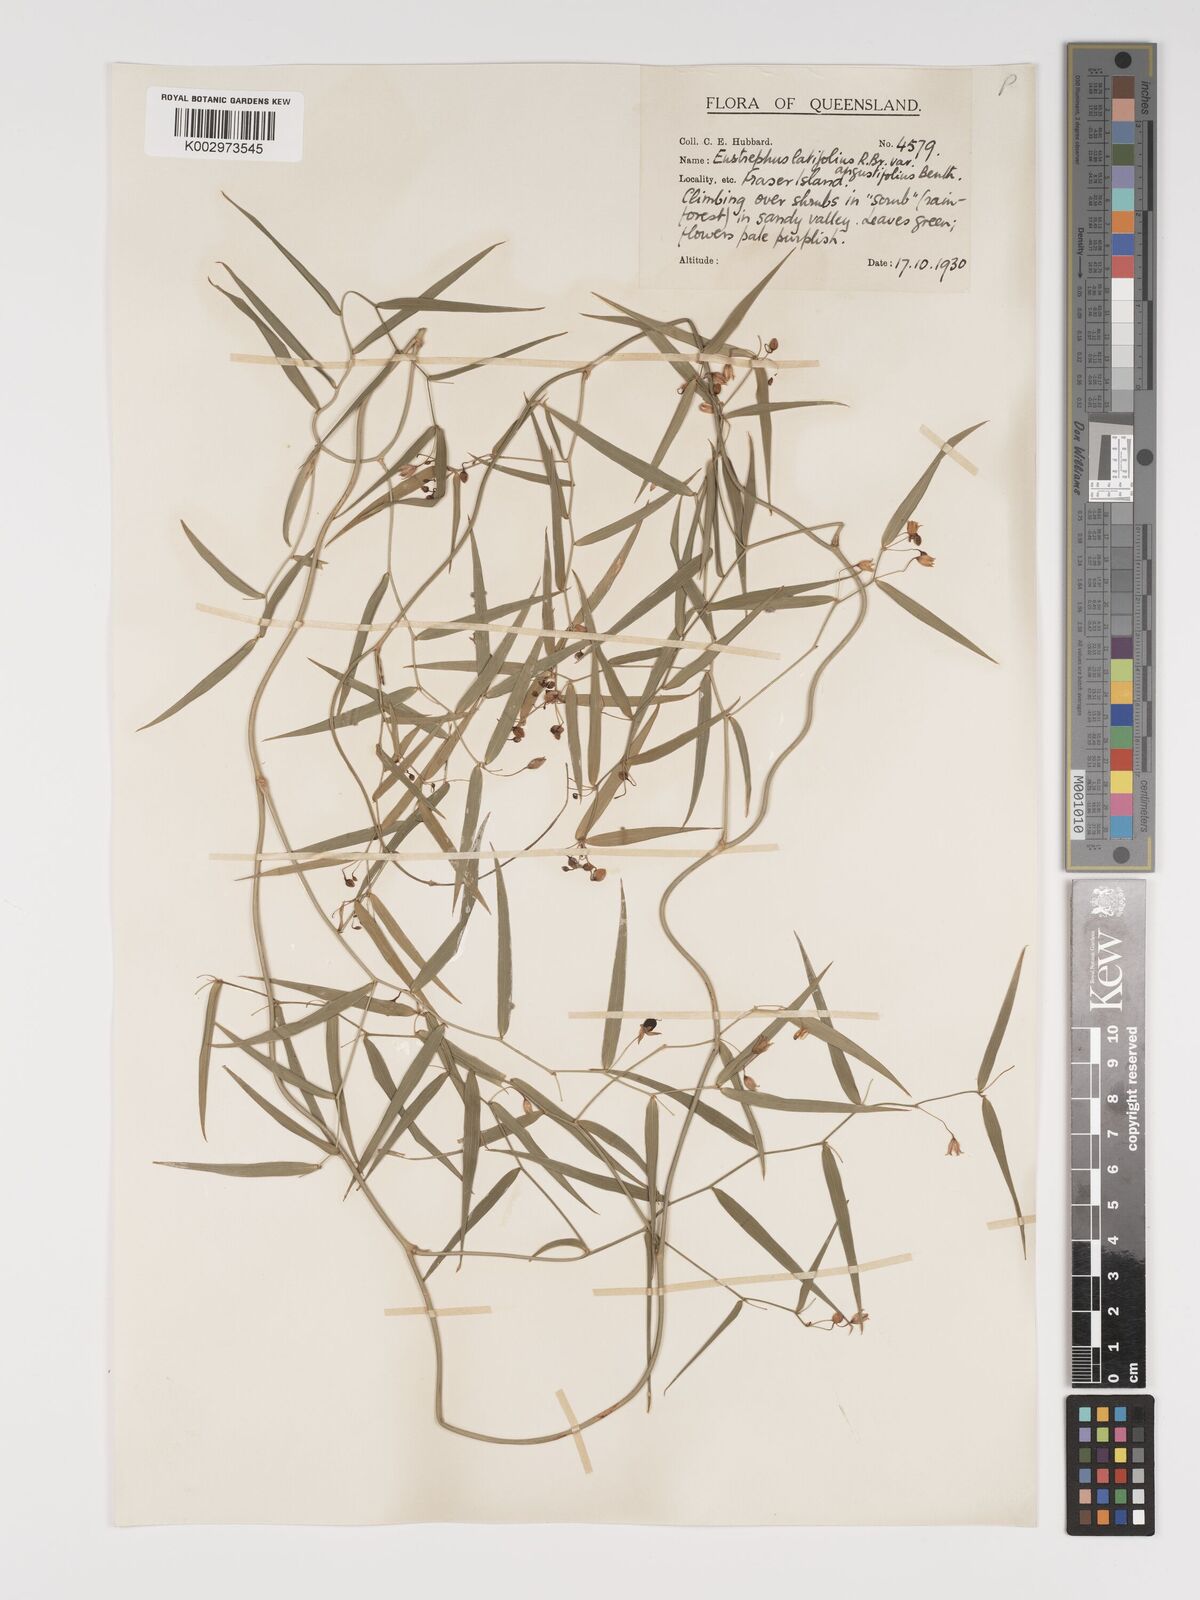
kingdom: Plantae
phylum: Tracheophyta
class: Liliopsida
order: Asparagales
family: Asparagaceae
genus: Eustrephus
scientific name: Eustrephus latifolius
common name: Orangevine
